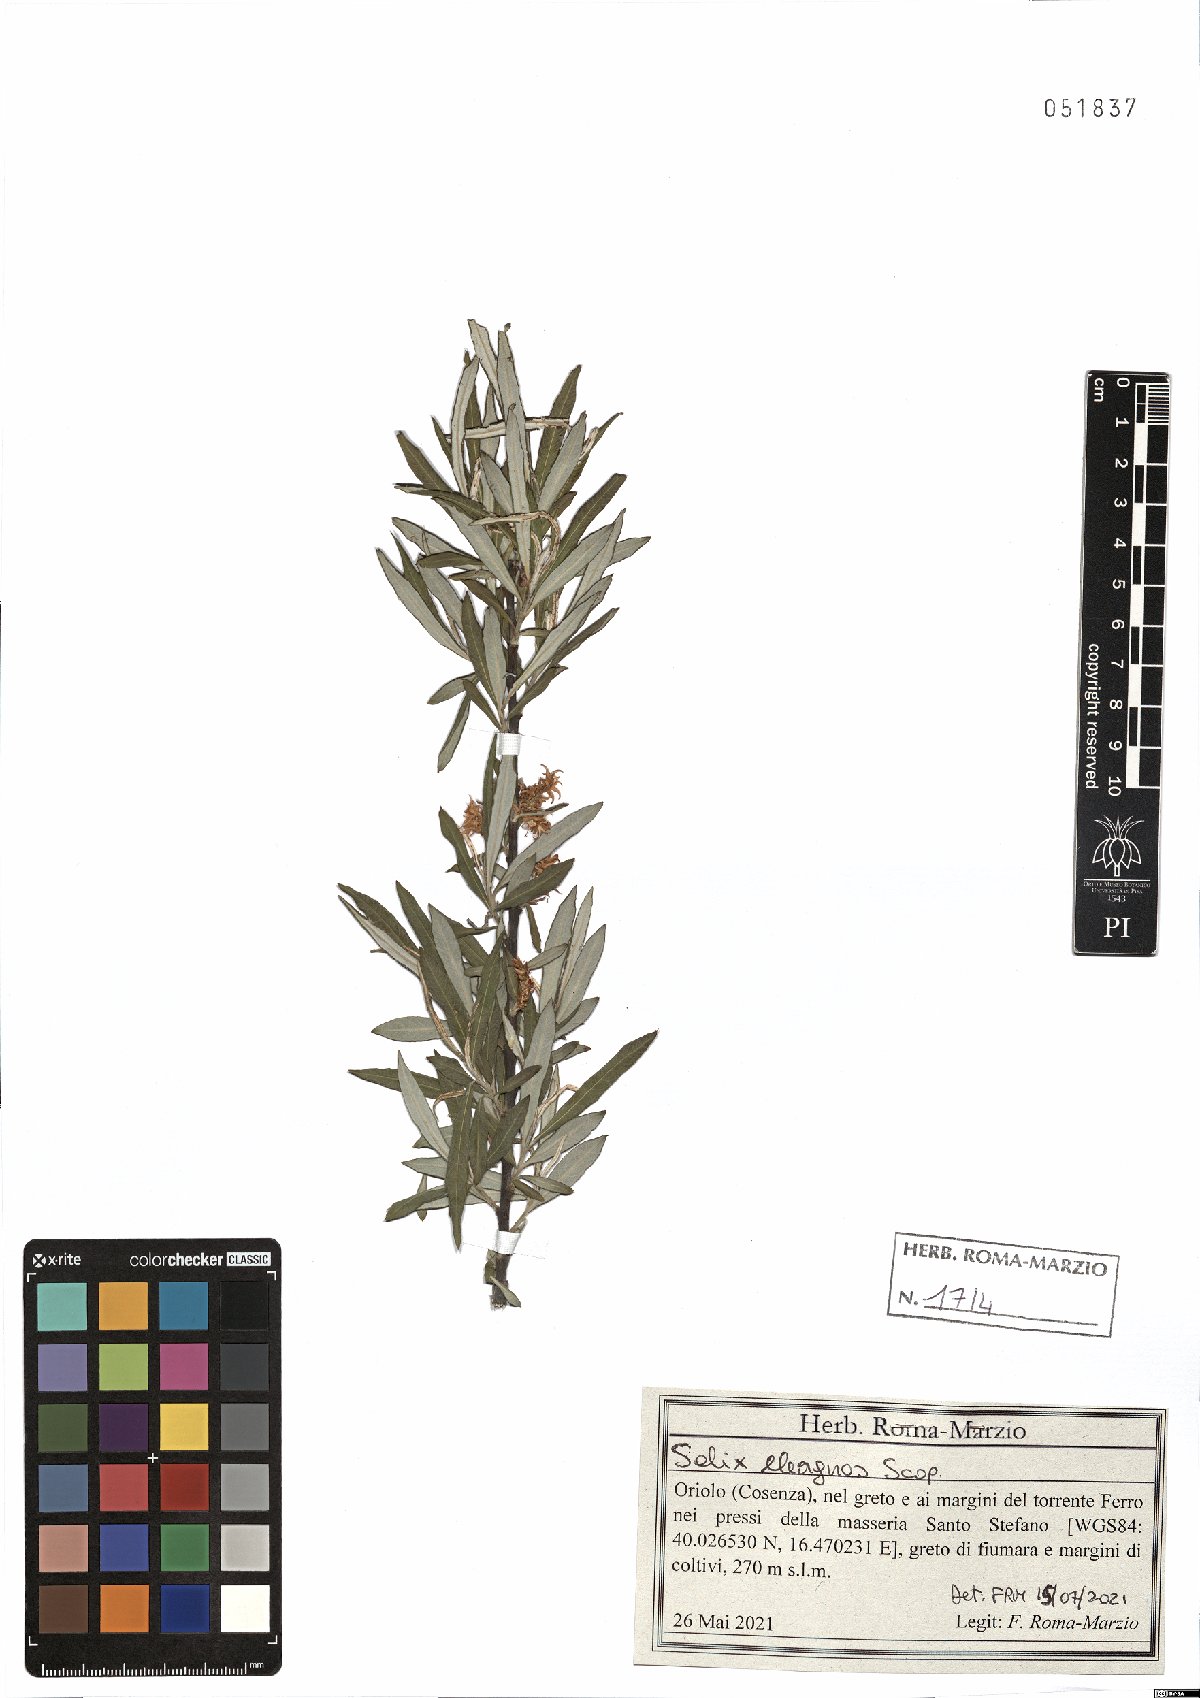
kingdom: Plantae
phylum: Tracheophyta
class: Magnoliopsida
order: Malpighiales
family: Salicaceae
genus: Salix
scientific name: Salix eleagnos
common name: Elaeagnus willow
